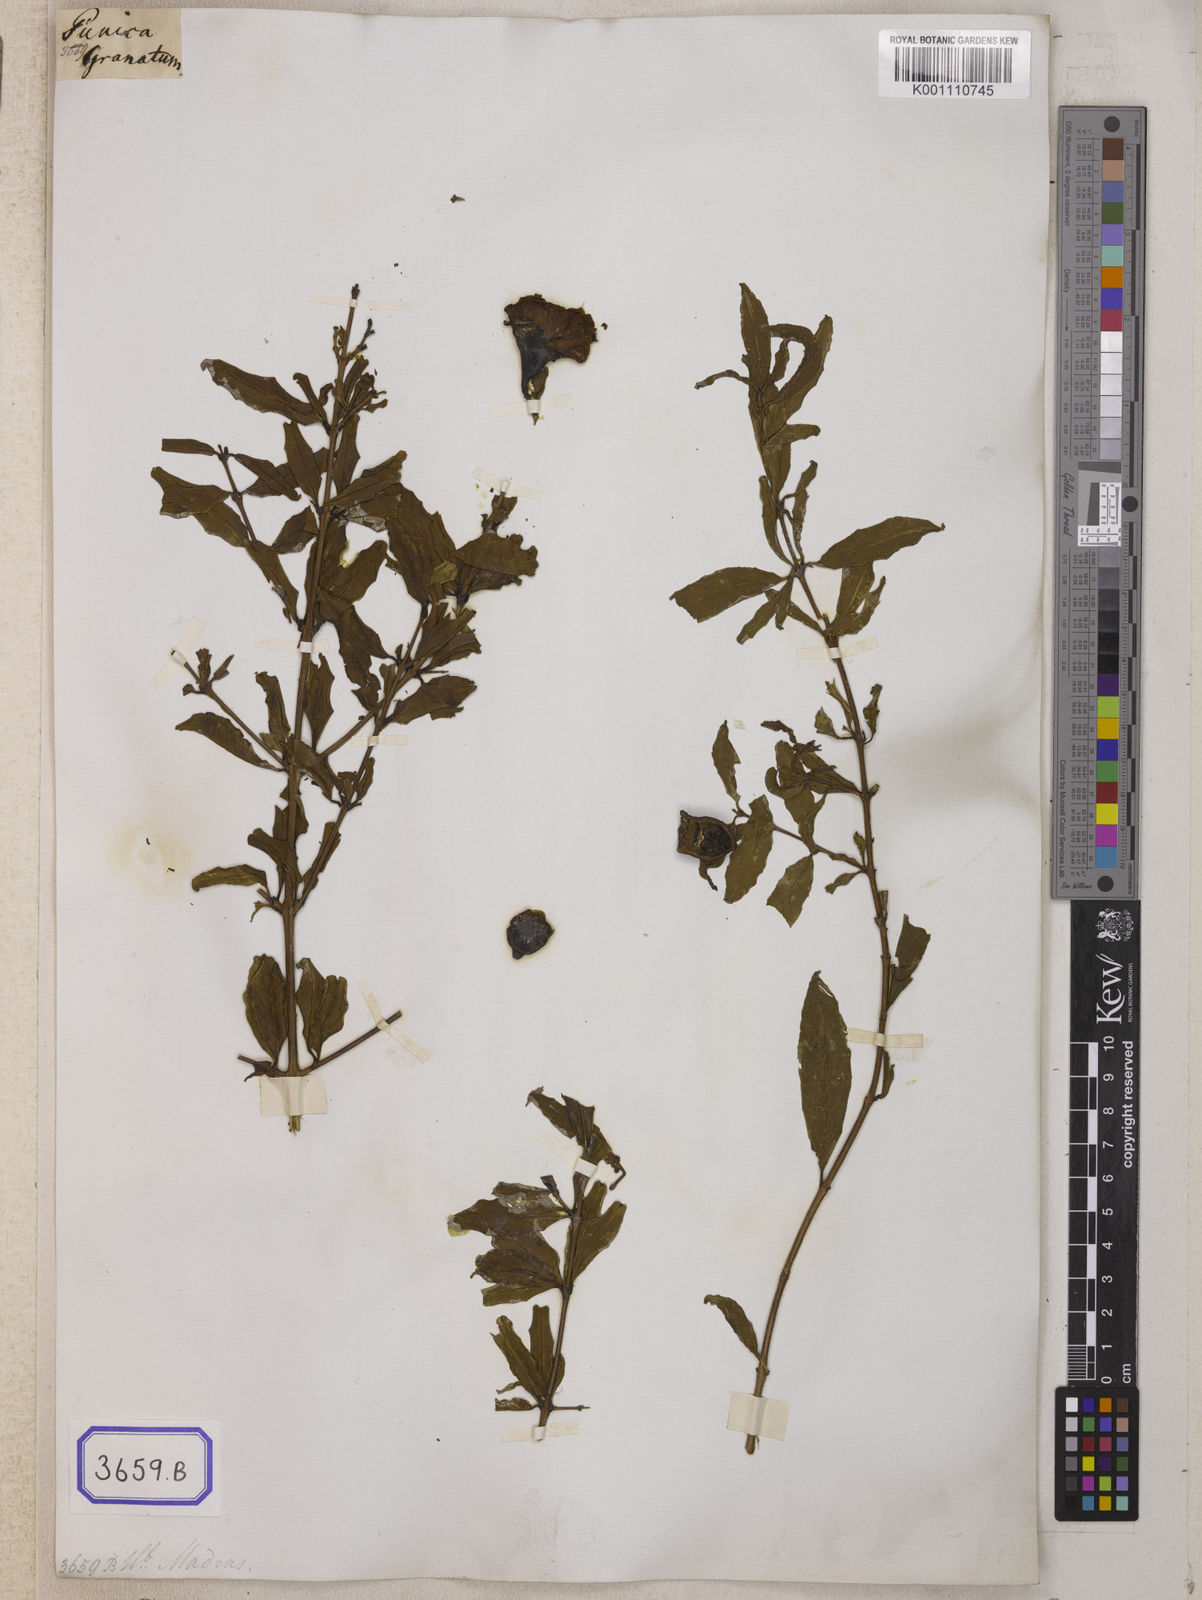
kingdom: Plantae
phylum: Tracheophyta
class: Magnoliopsida
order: Myrtales
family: Lythraceae
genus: Punica
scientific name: Punica granatum
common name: Pomegranate
